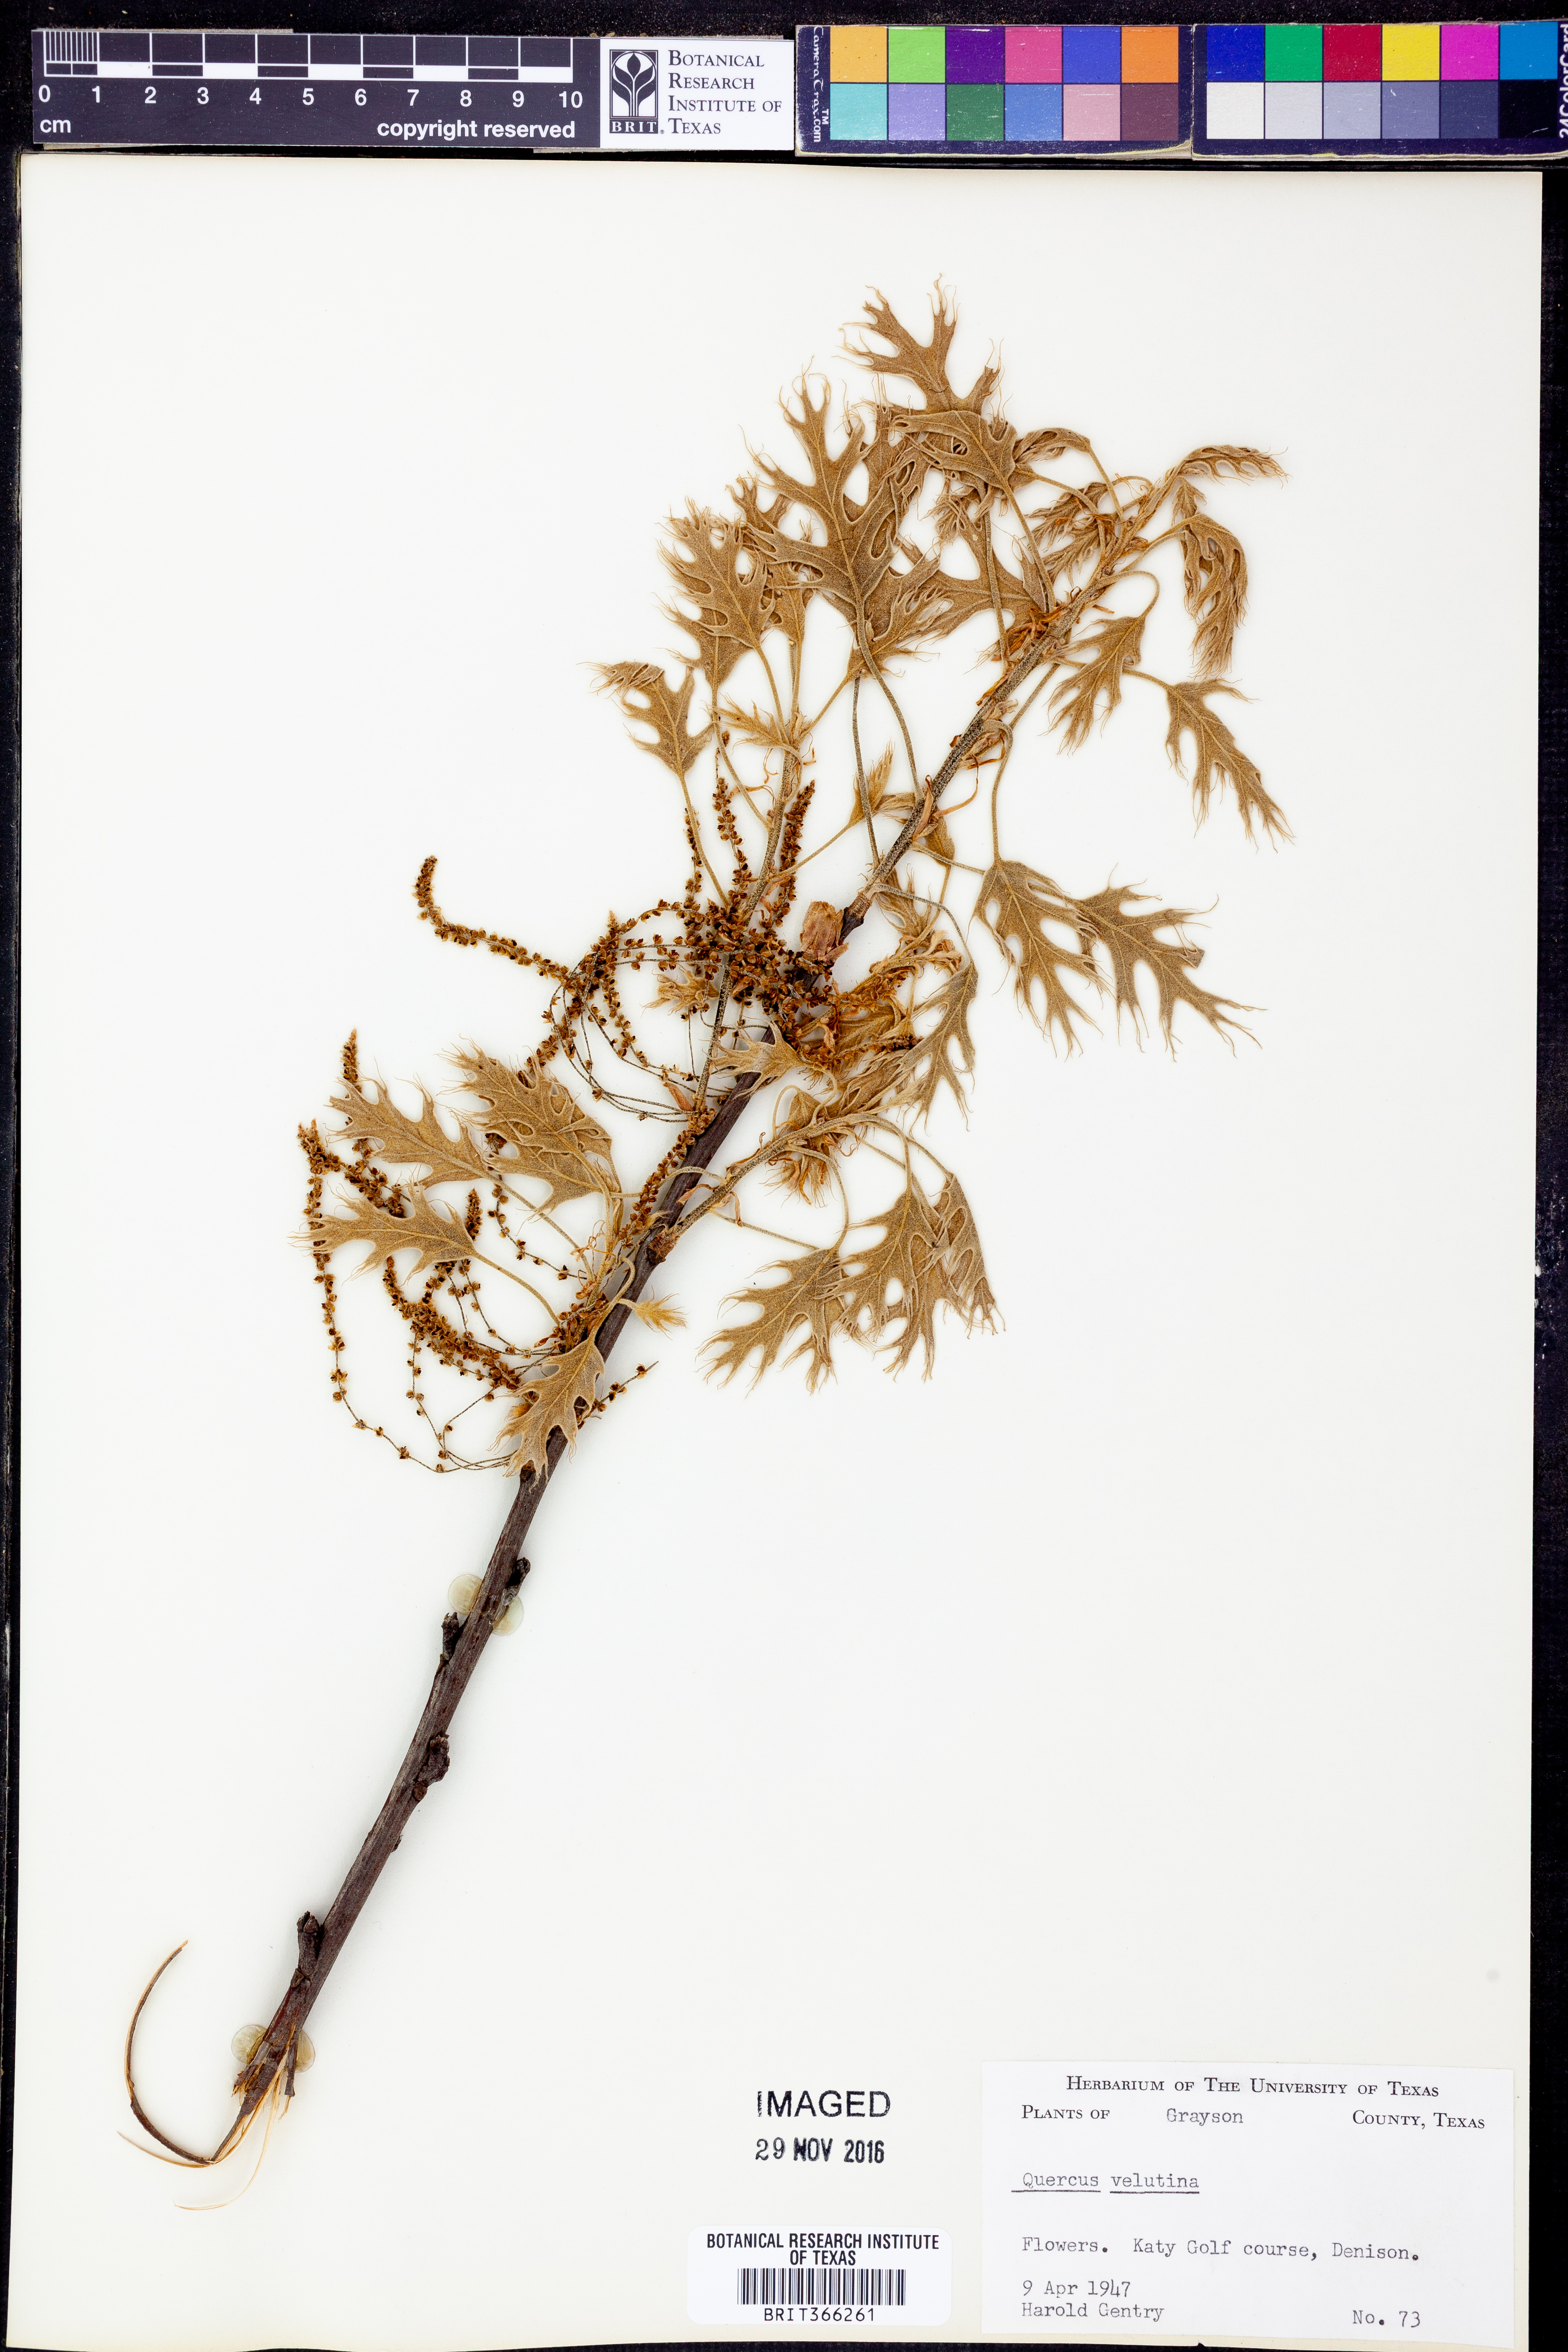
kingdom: Plantae
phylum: Tracheophyta
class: Magnoliopsida
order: Fagales
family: Fagaceae
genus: Quercus
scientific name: Quercus velutina
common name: Black oak
